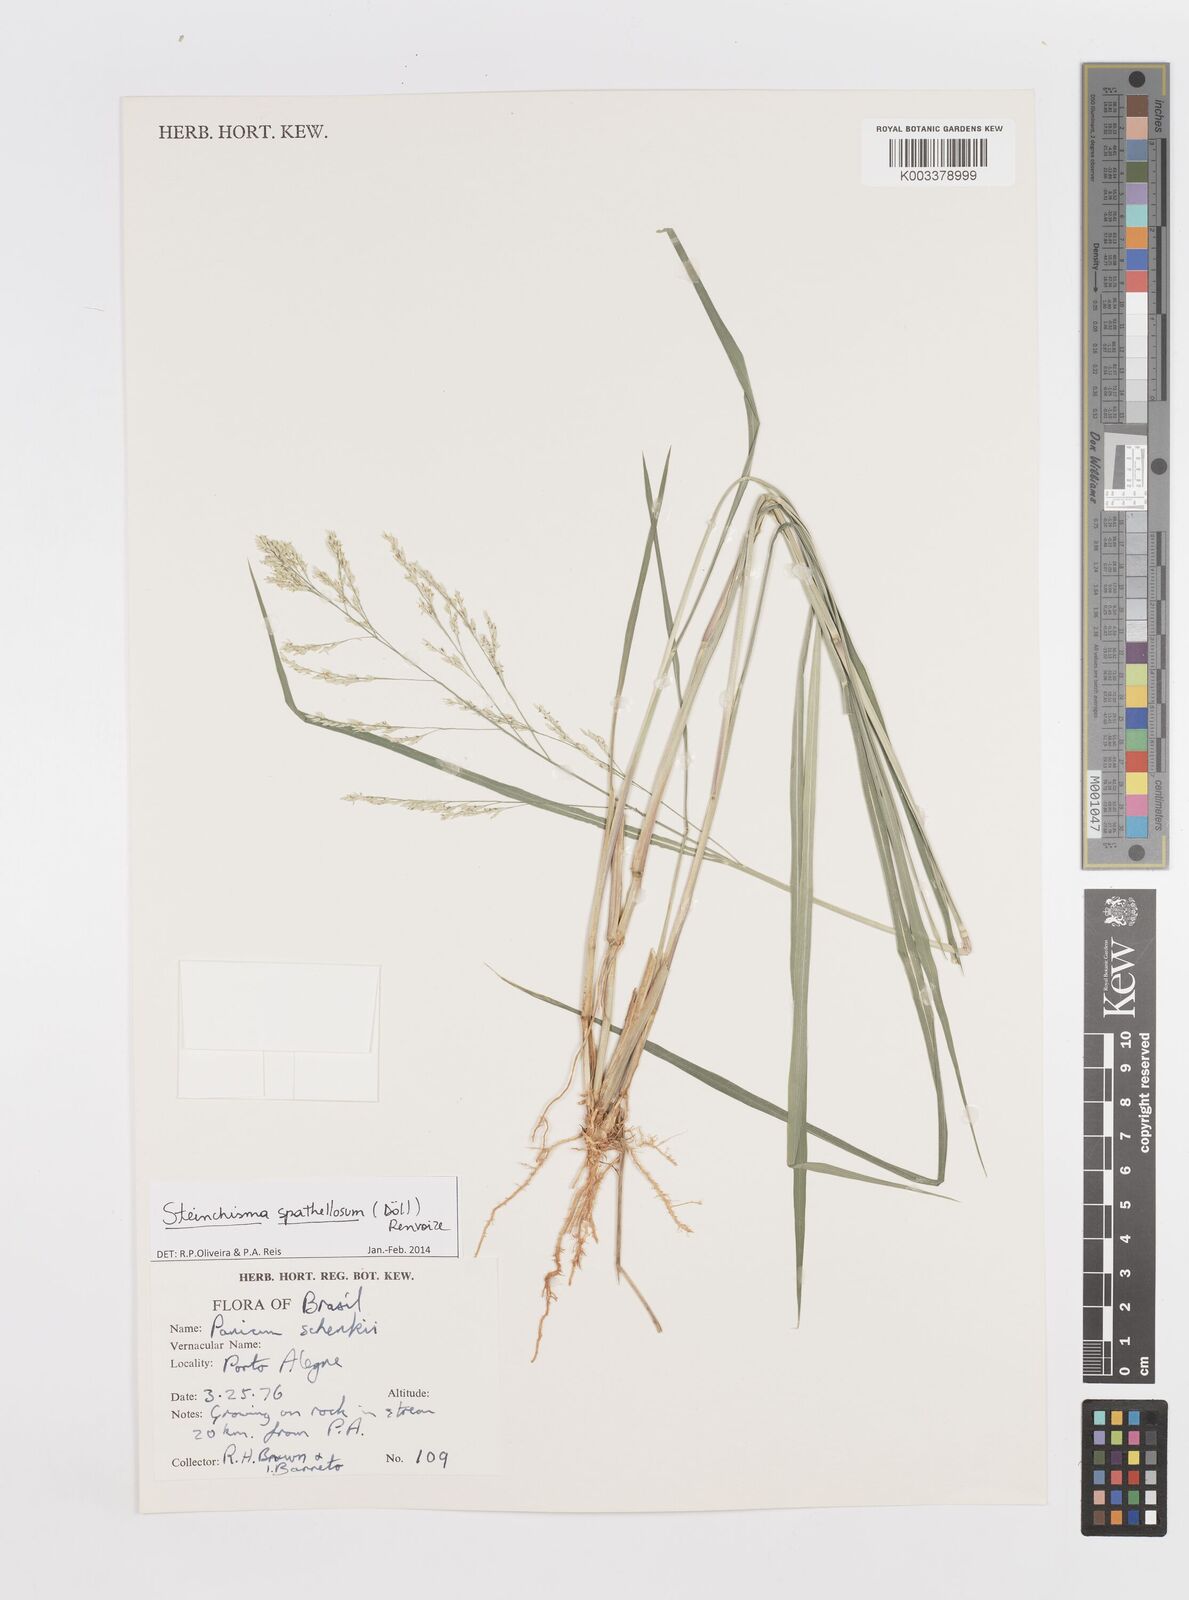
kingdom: Plantae
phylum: Tracheophyta
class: Liliopsida
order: Poales
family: Poaceae
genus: Steinchisma
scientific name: Steinchisma spathellosum
